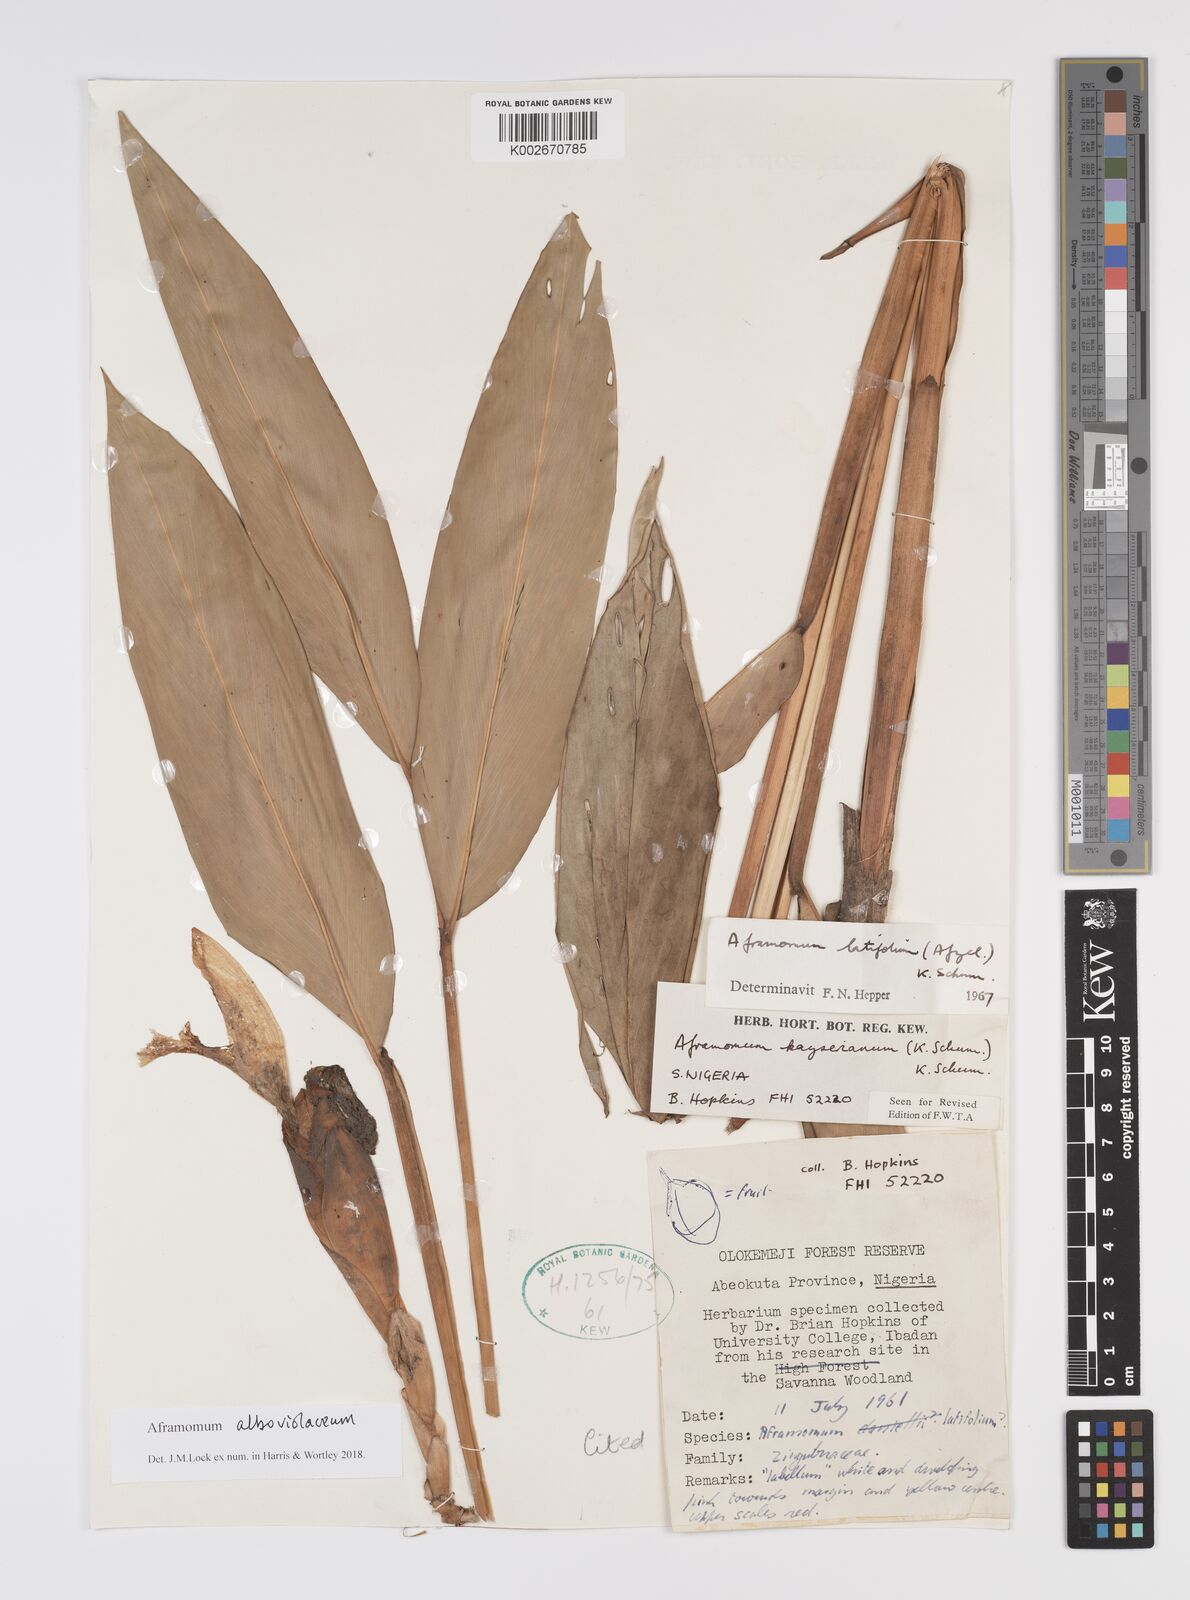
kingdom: Plantae
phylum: Tracheophyta
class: Liliopsida
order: Zingiberales
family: Zingiberaceae
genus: Aframomum
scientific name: Aframomum alboviolaceum
